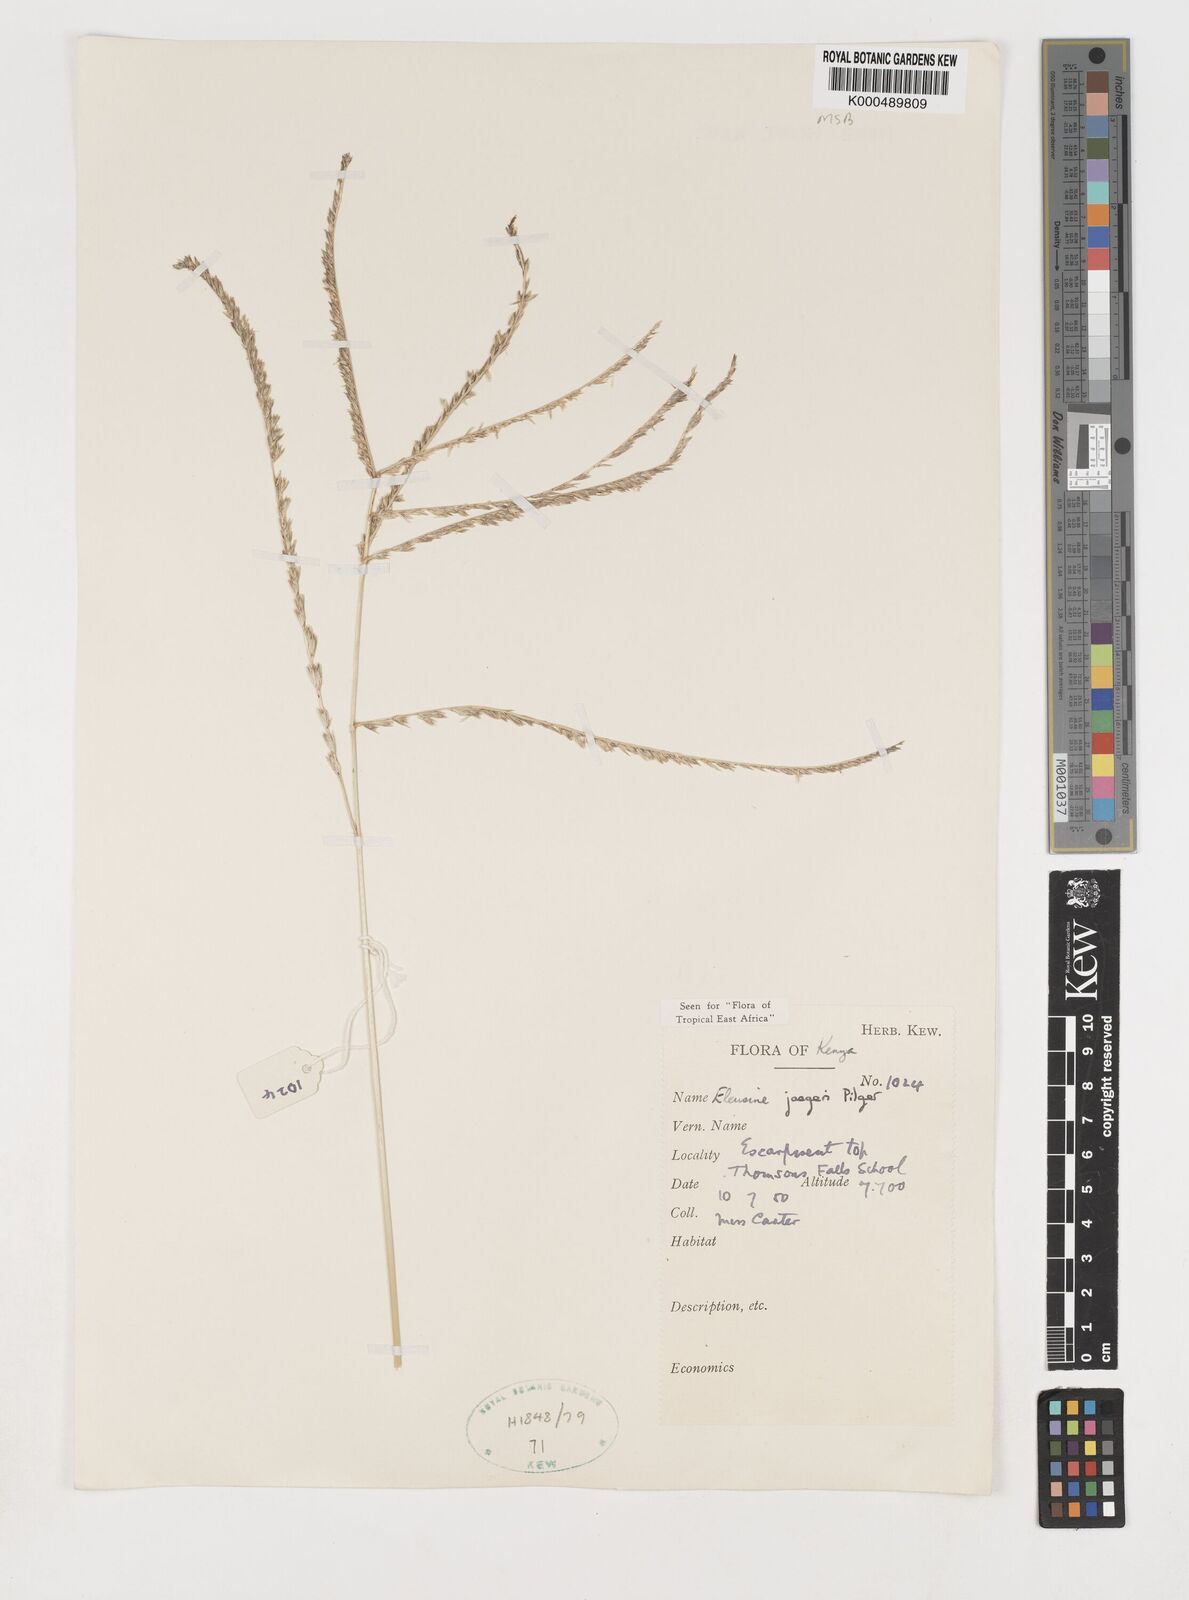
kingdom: Plantae
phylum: Tracheophyta
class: Liliopsida
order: Poales
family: Poaceae
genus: Eleusine
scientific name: Eleusine jaegeri
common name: Manyatta grass
